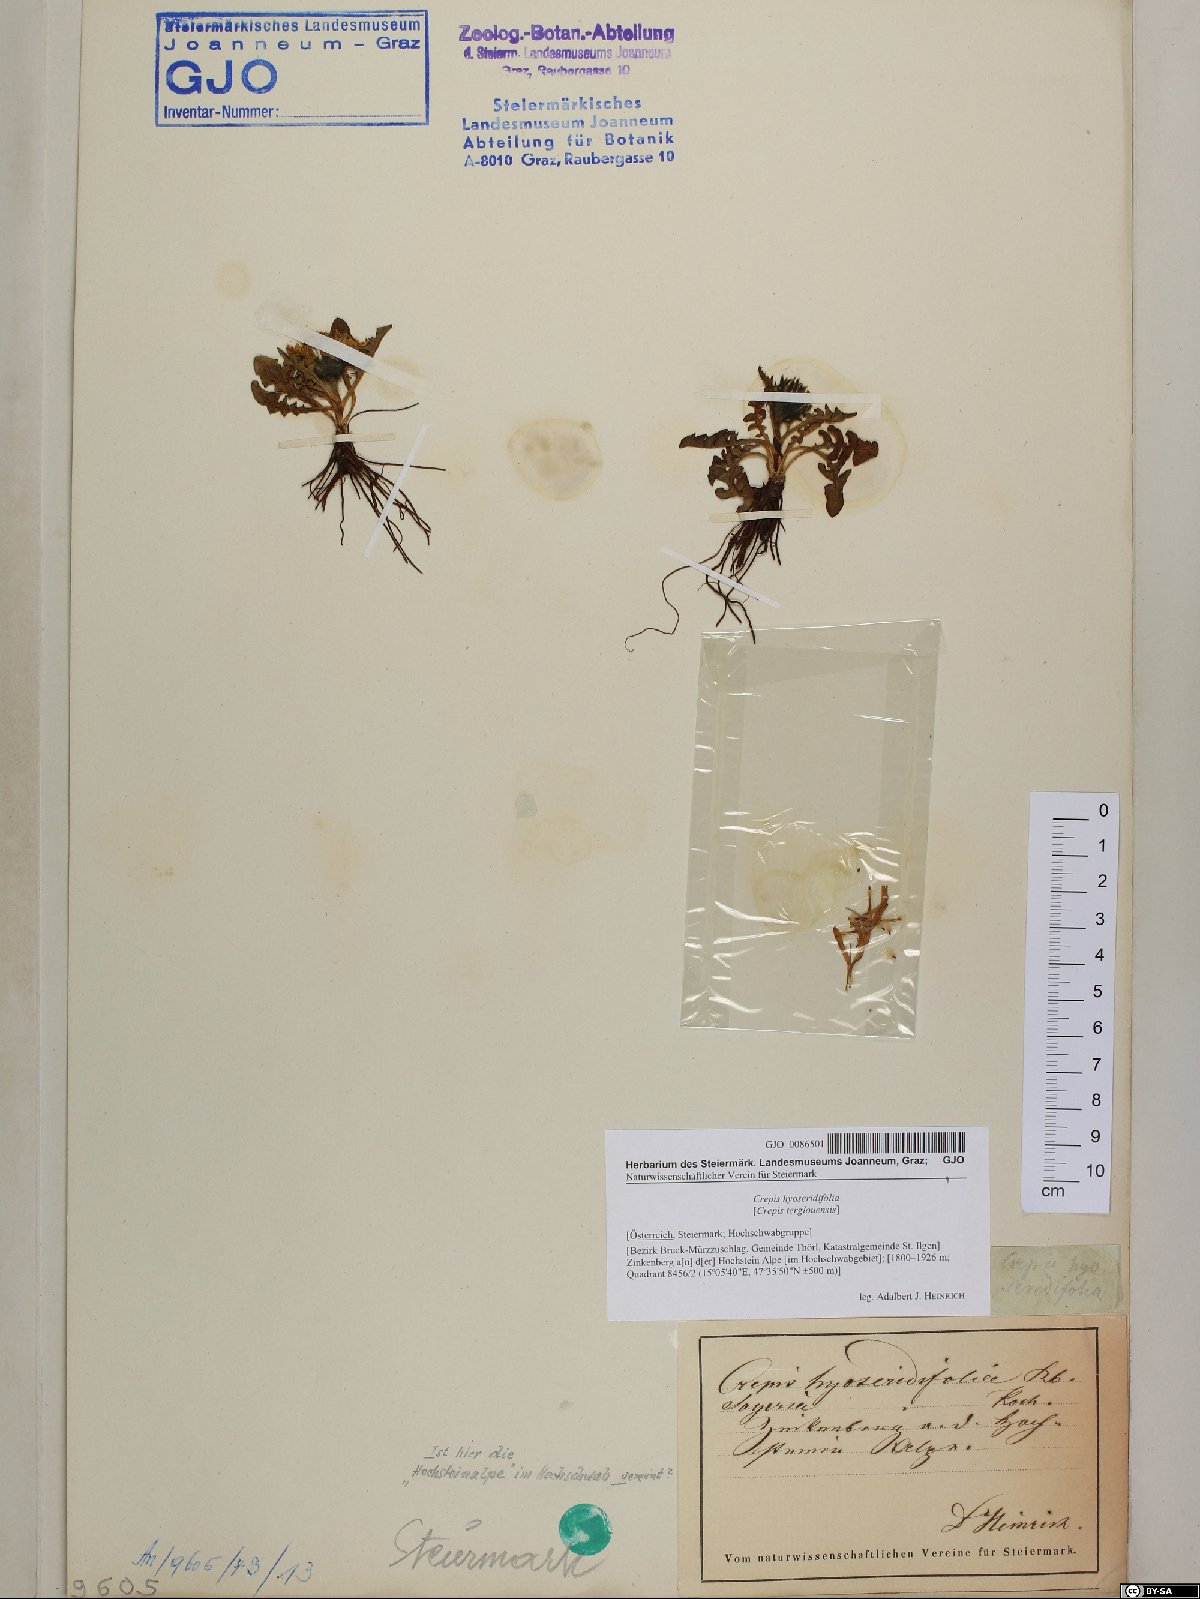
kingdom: Plantae
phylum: Tracheophyta
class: Magnoliopsida
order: Asterales
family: Asteraceae
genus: Crepis
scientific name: Crepis terglouensis
